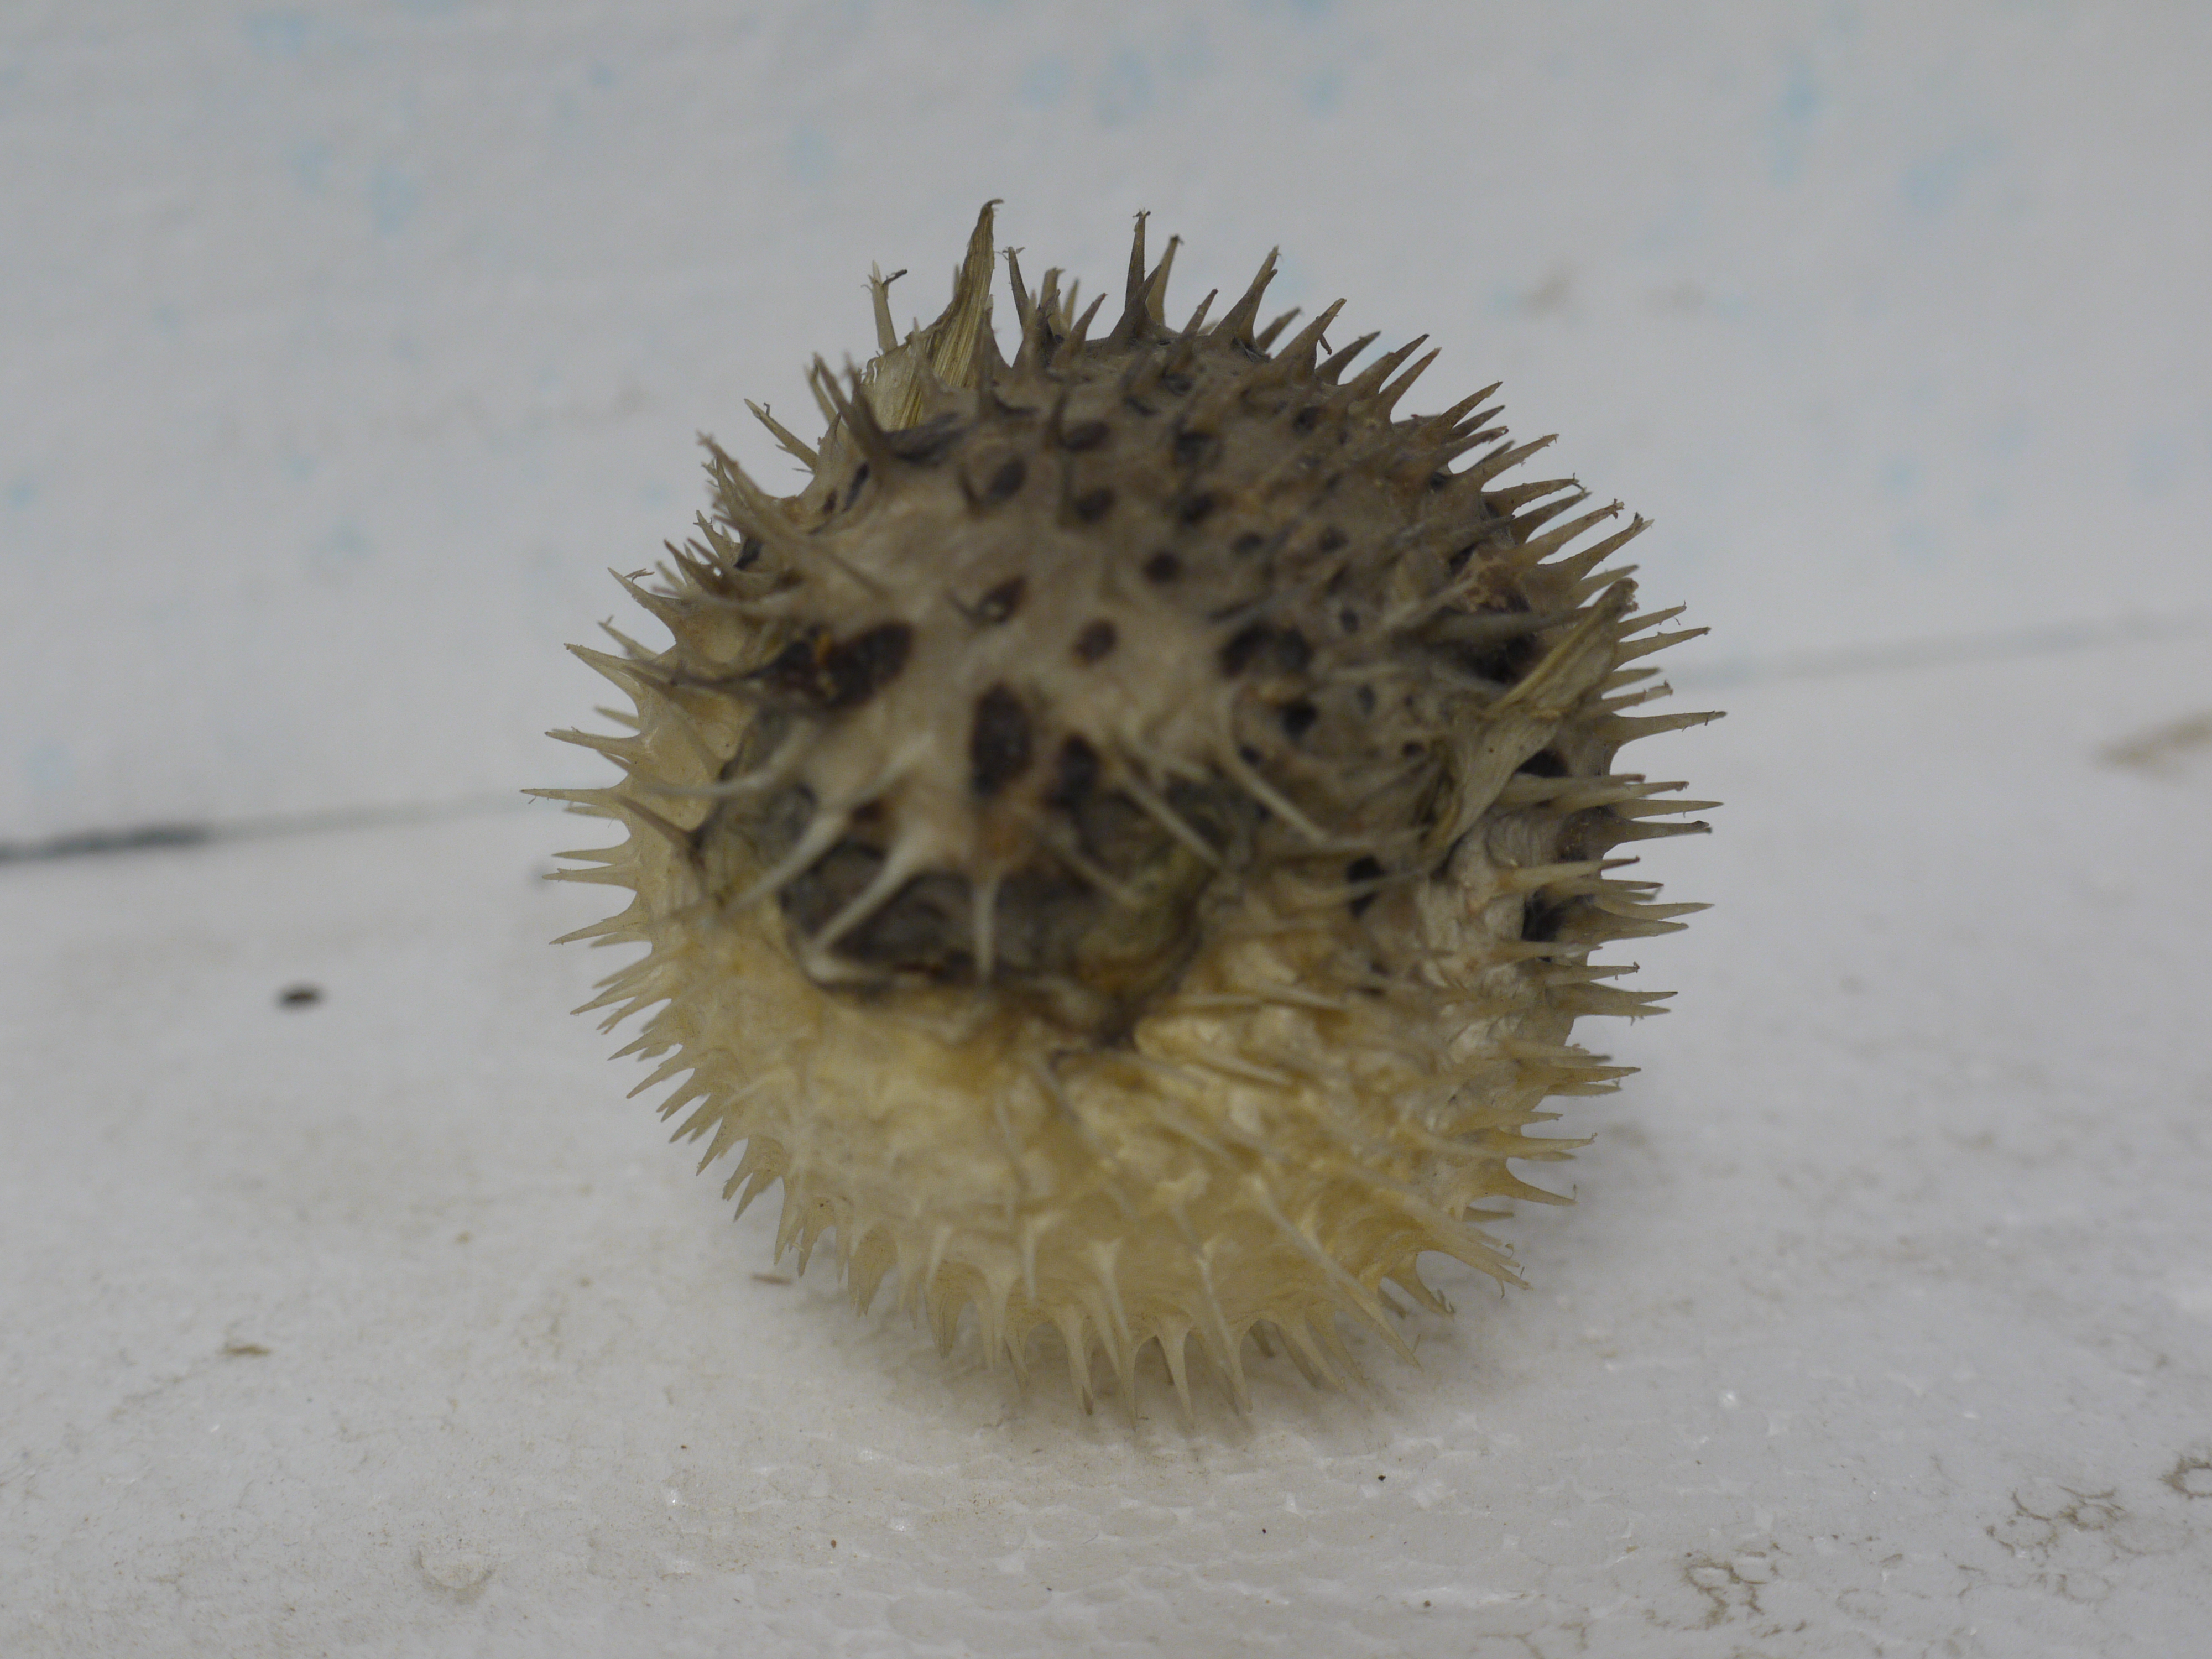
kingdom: Animalia
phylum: Chordata
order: Tetraodontiformes
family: Diodontidae
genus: Diodon
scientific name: Diodon hystrix
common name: Giant porcupinefish
